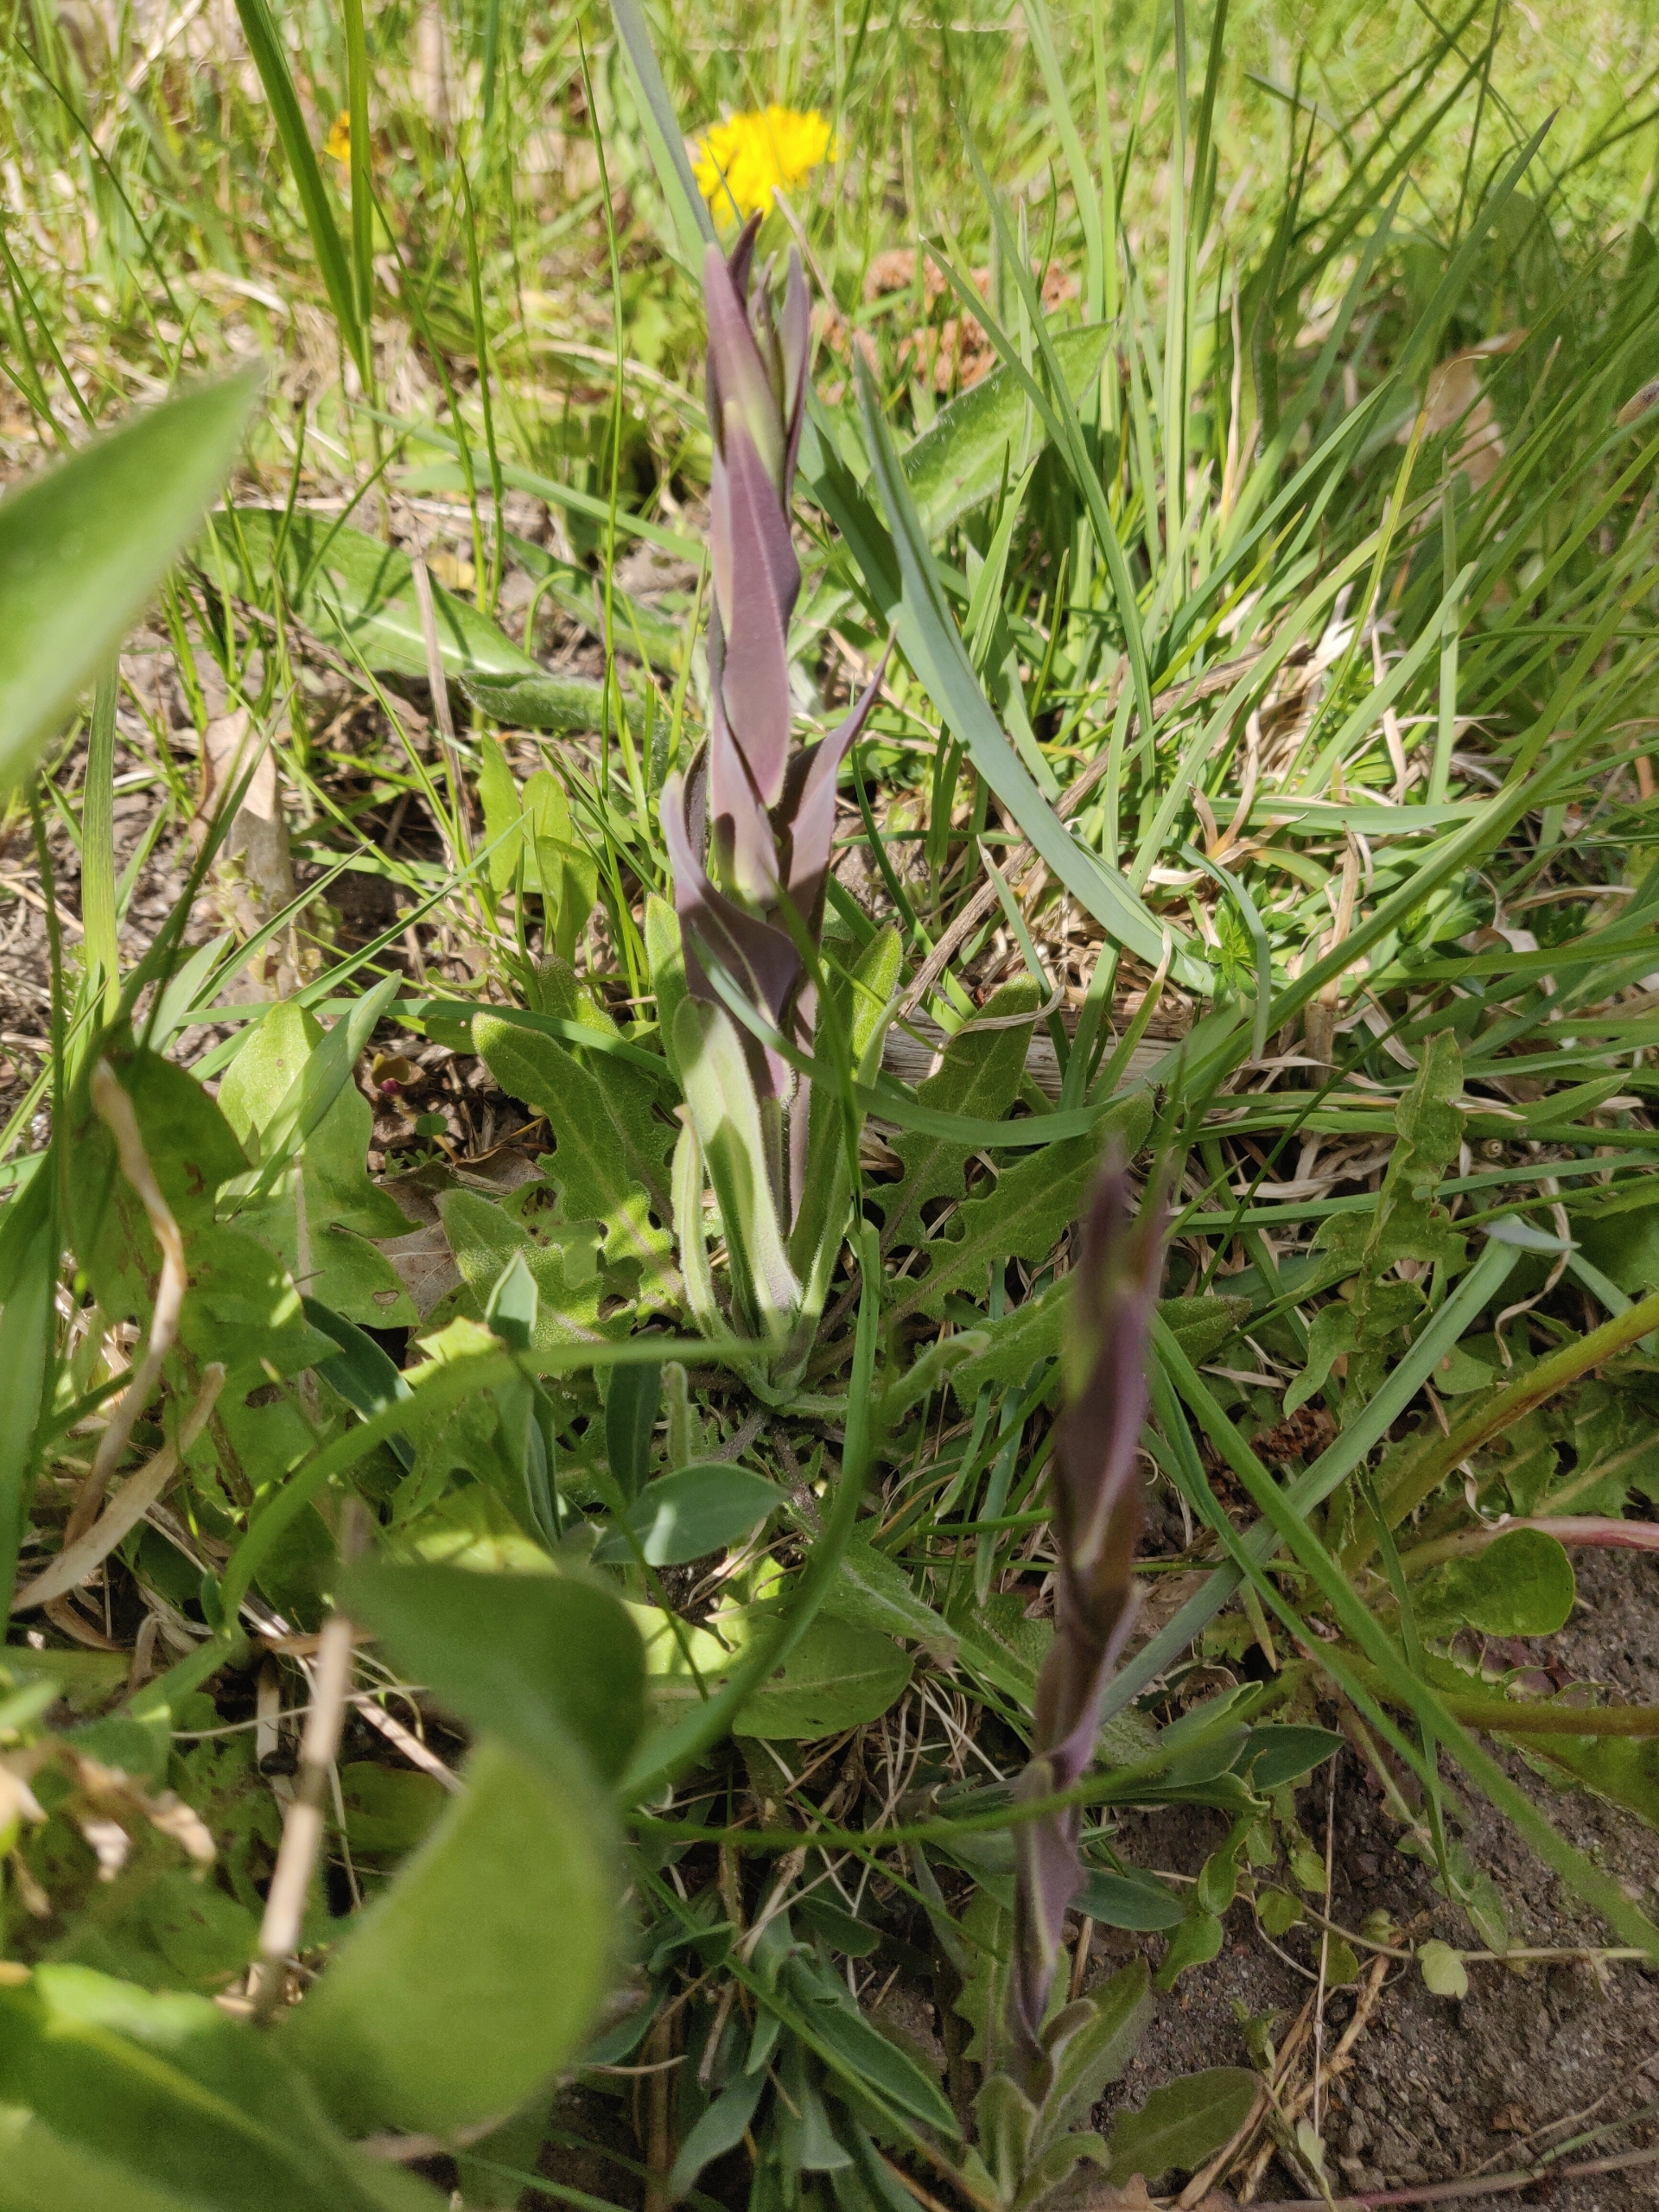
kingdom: Plantae
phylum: Tracheophyta
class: Magnoliopsida
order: Brassicales
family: Brassicaceae
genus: Turritis
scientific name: Turritis glabra
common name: Tårnurt
